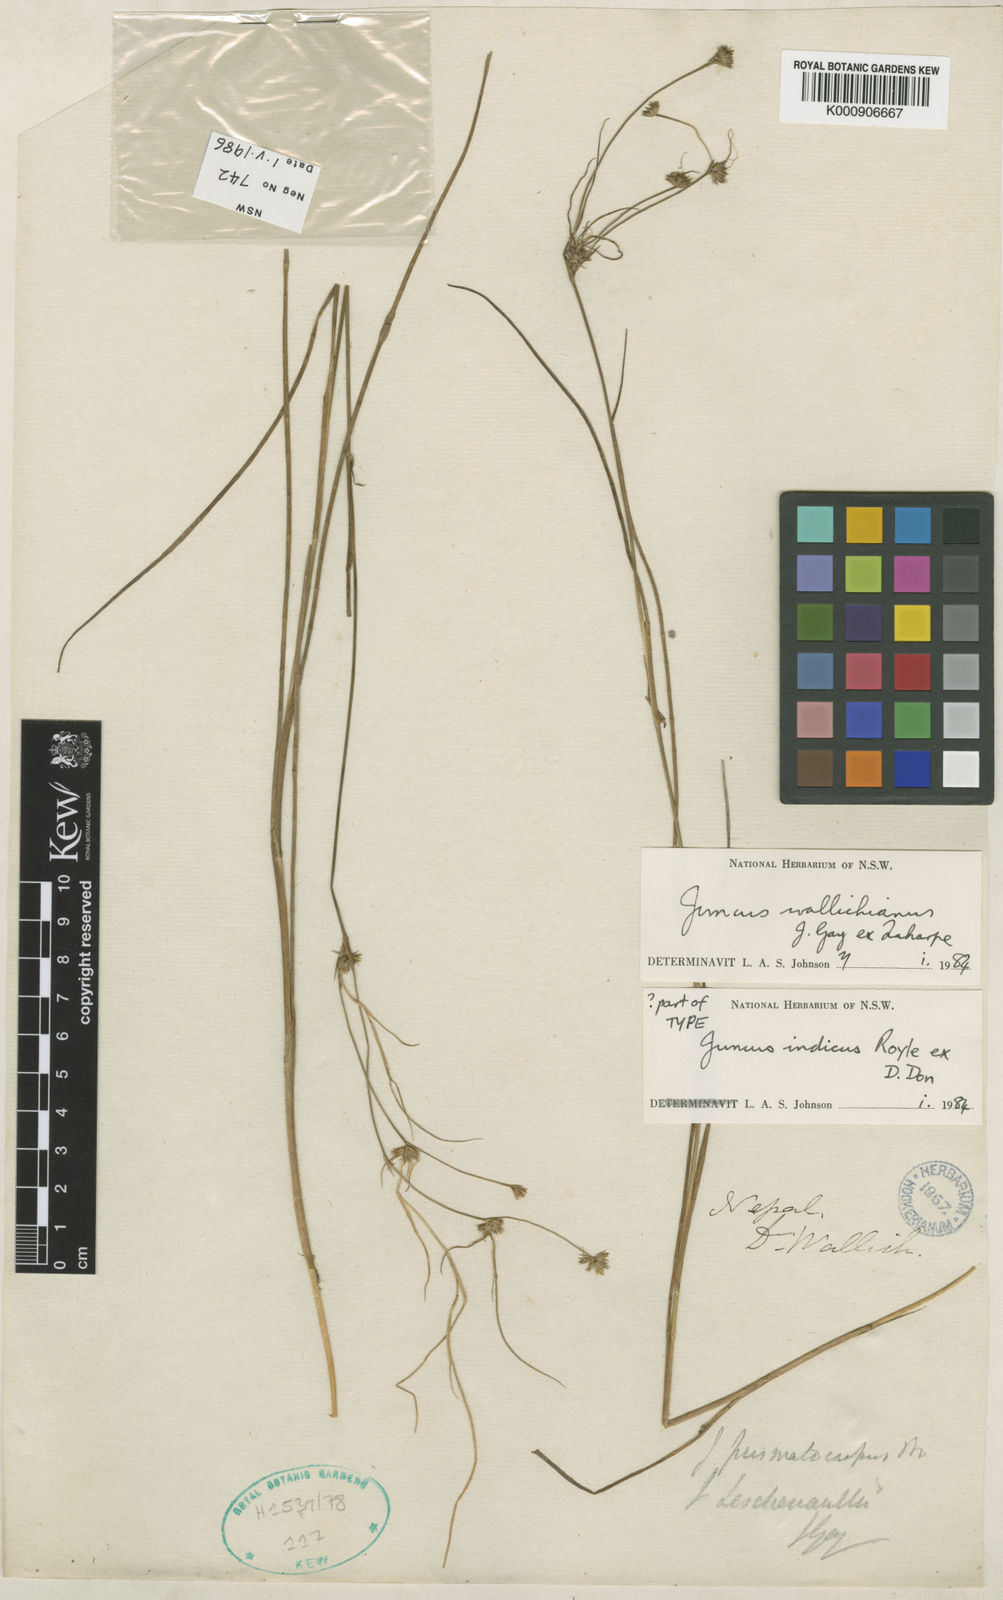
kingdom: Plantae
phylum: Tracheophyta
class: Liliopsida
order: Poales
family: Juncaceae
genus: Juncus
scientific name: Juncus prismatocarpus
